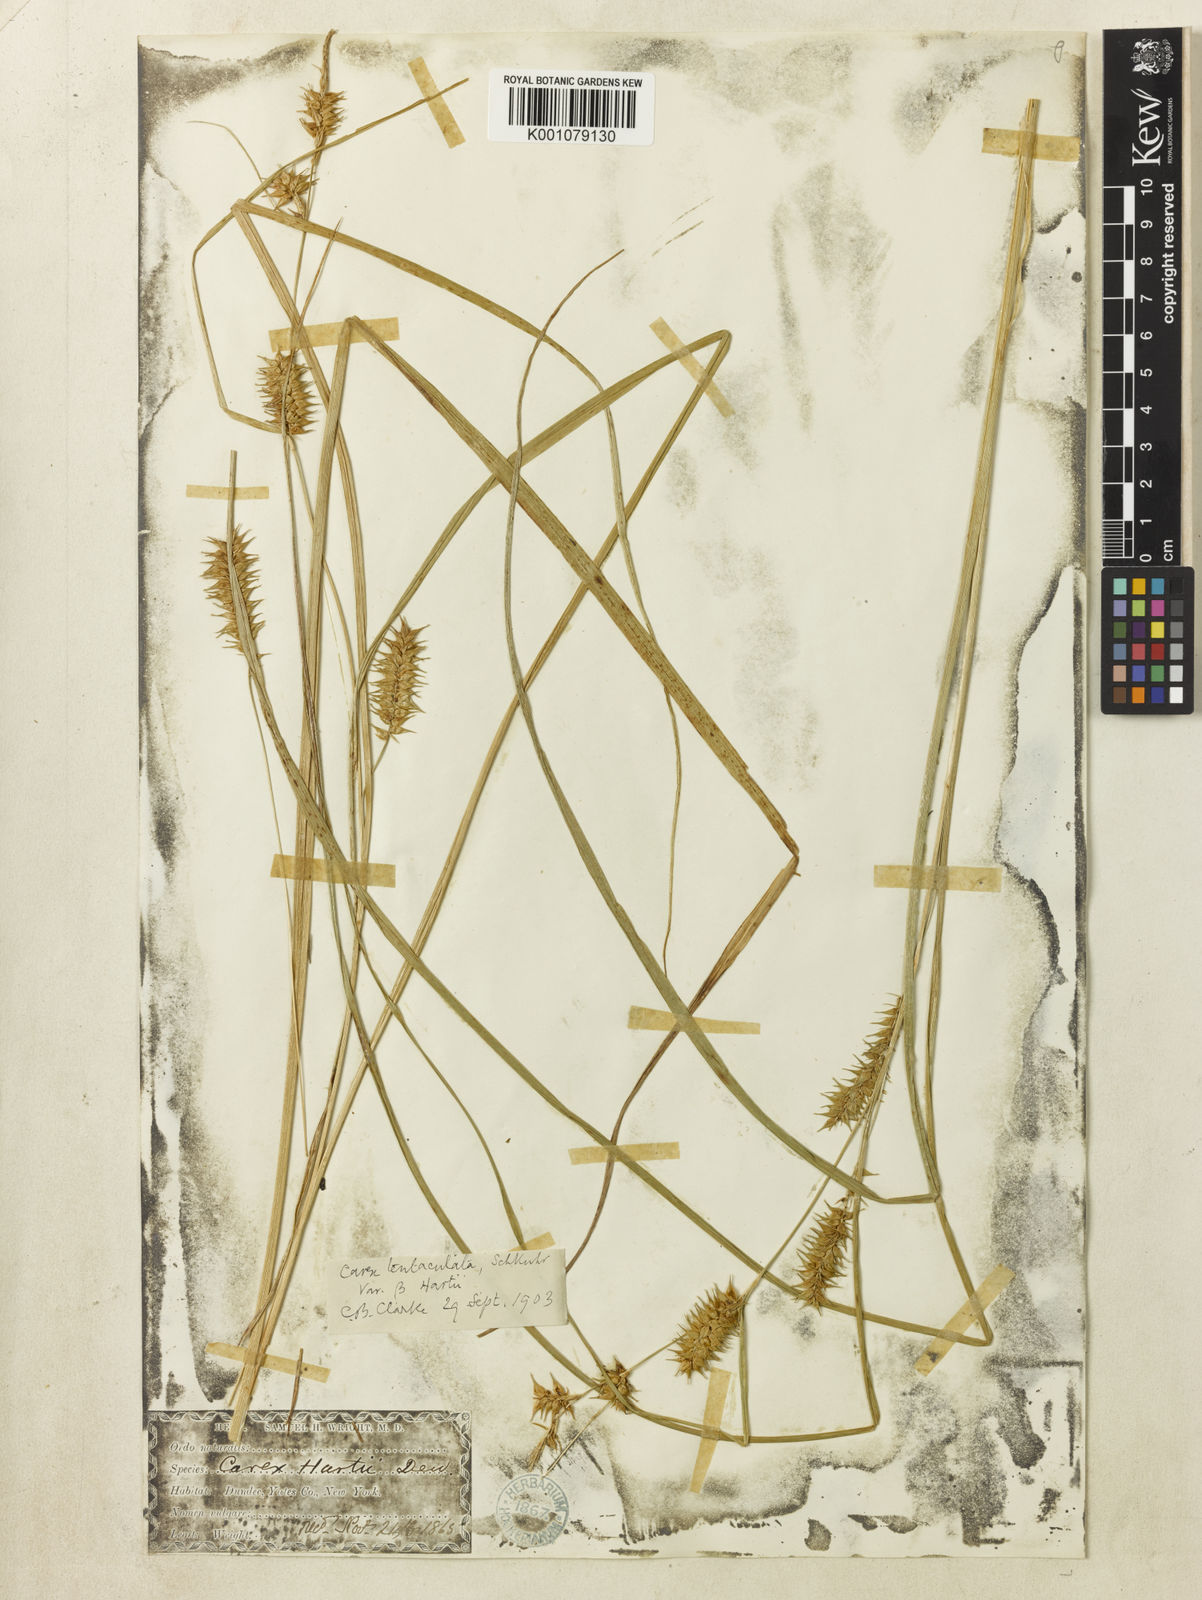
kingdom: Plantae
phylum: Tracheophyta
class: Liliopsida
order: Poales
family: Cyperaceae
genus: Carex
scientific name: Carex retrorsa
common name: Knot-sheath sedge
